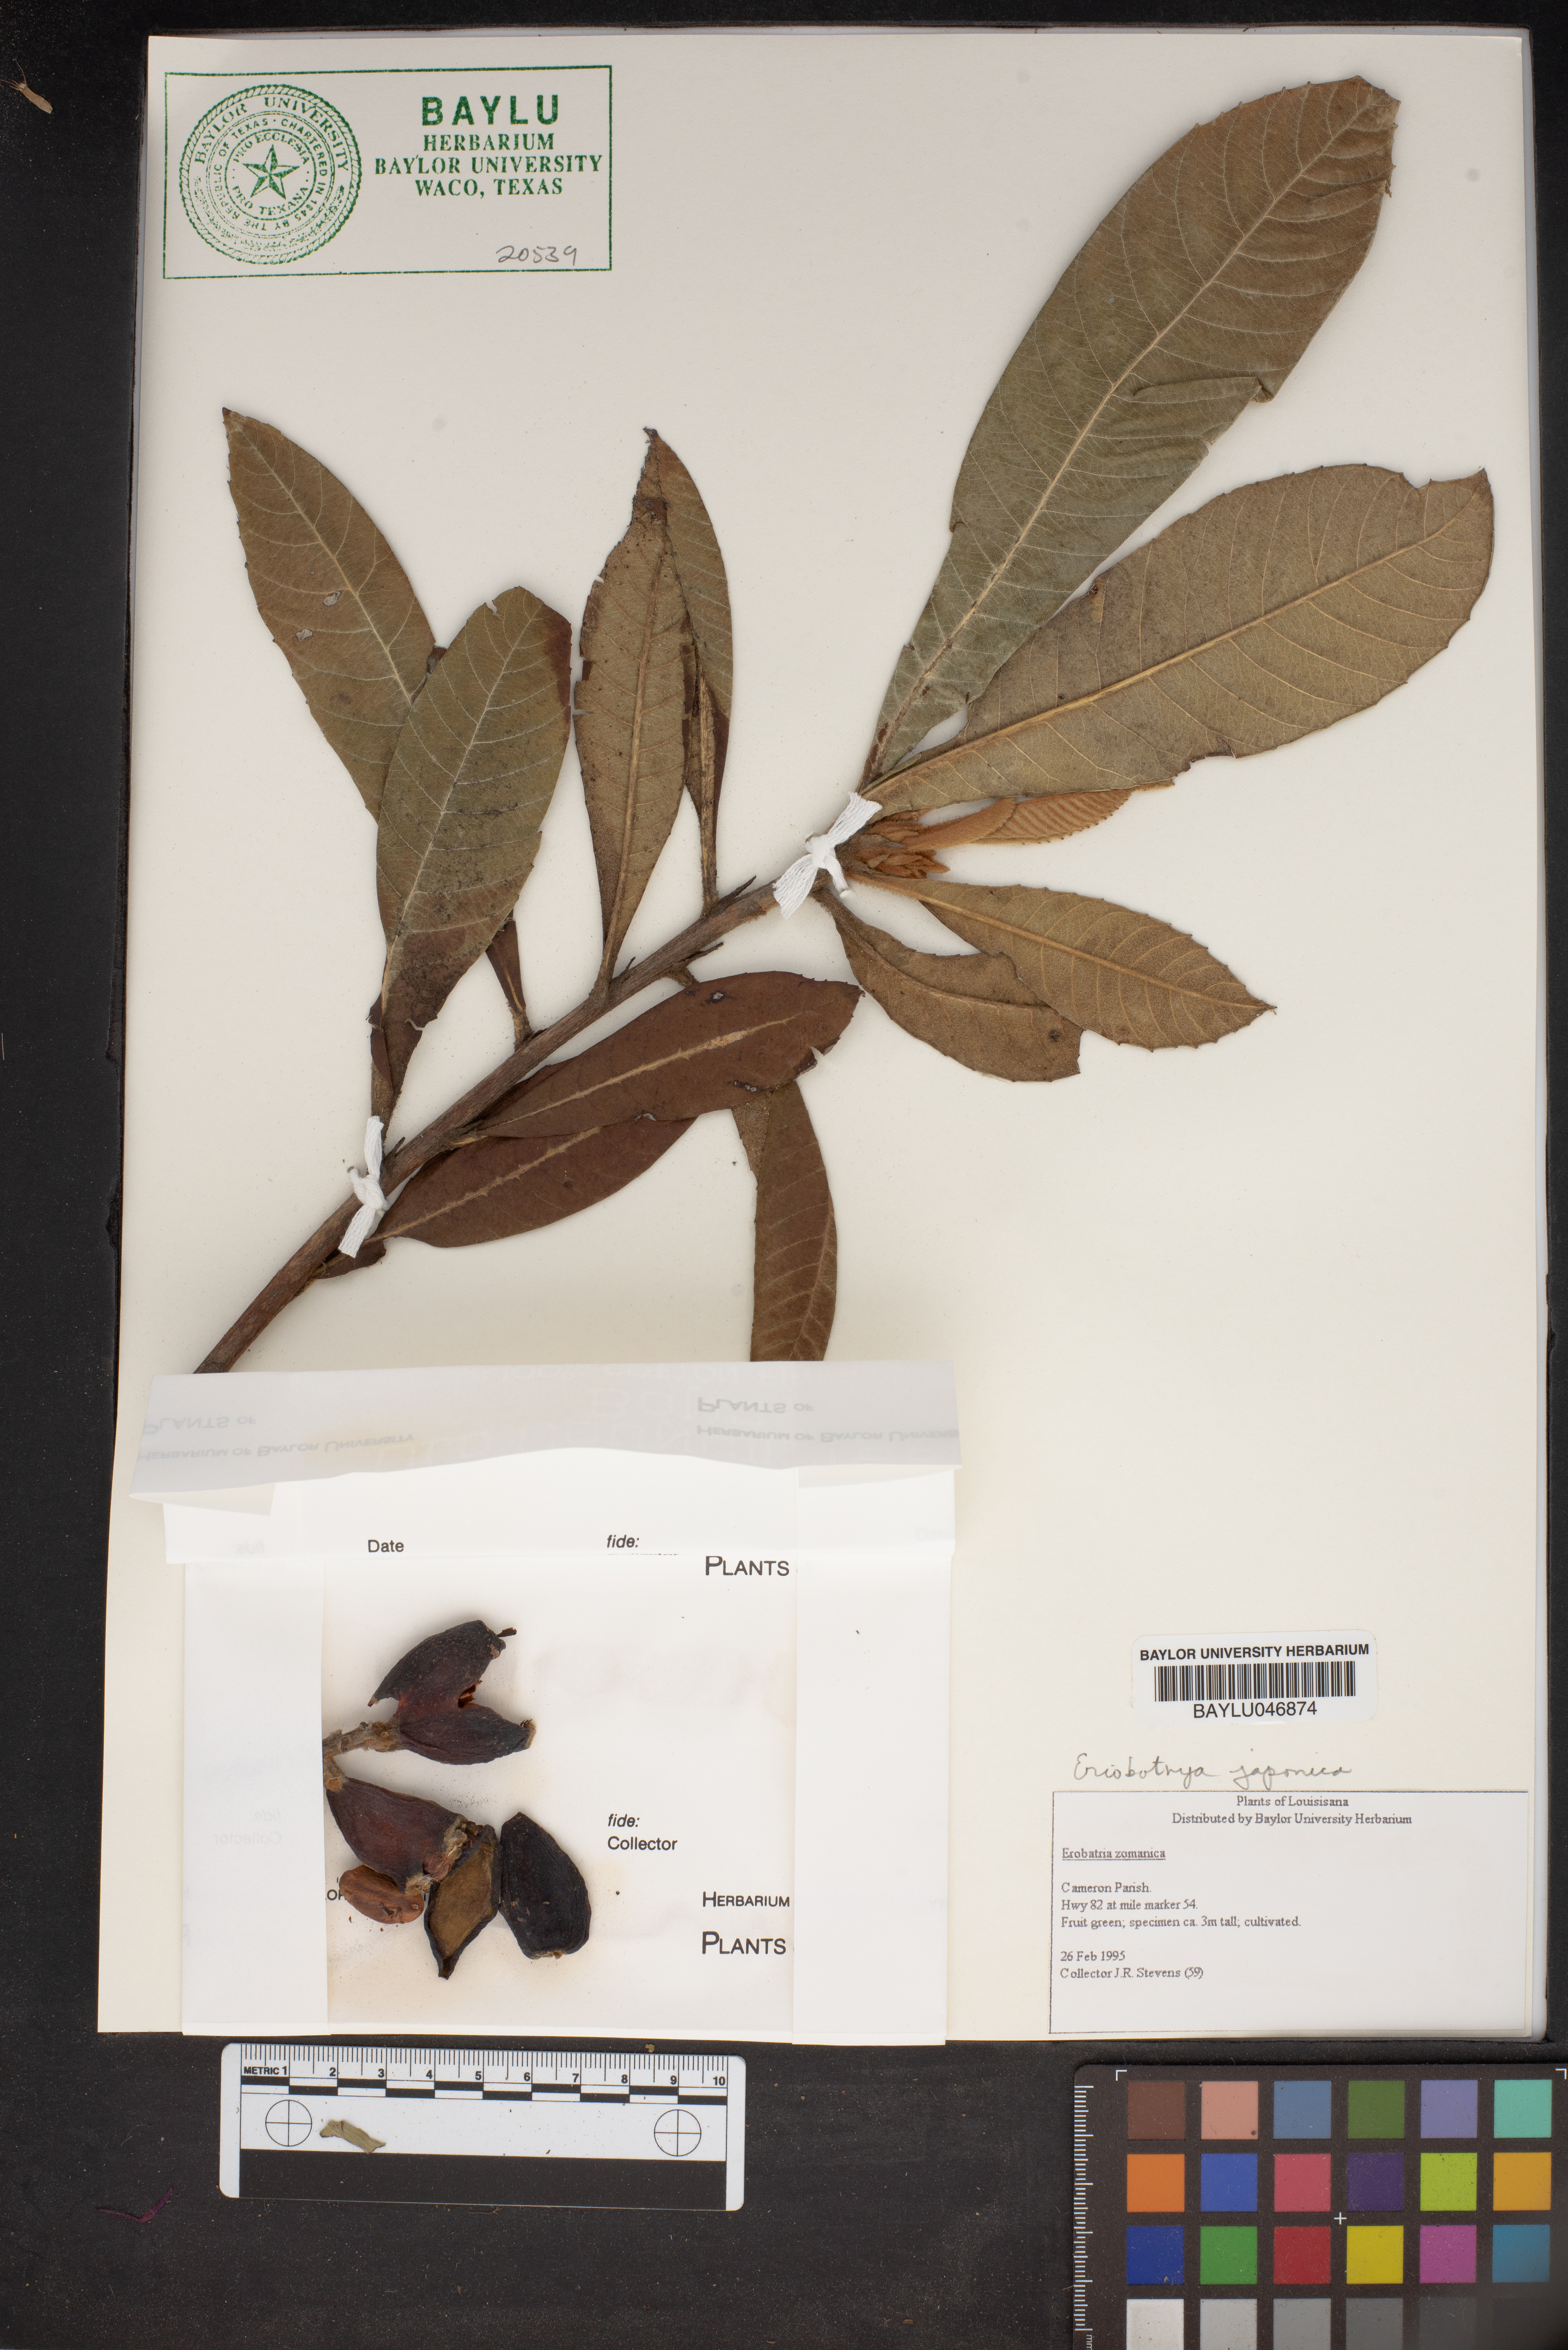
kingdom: Plantae
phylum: Tracheophyta
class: Magnoliopsida
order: Rosales
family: Rosaceae
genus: Rhaphiolepis
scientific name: Rhaphiolepis bibas
